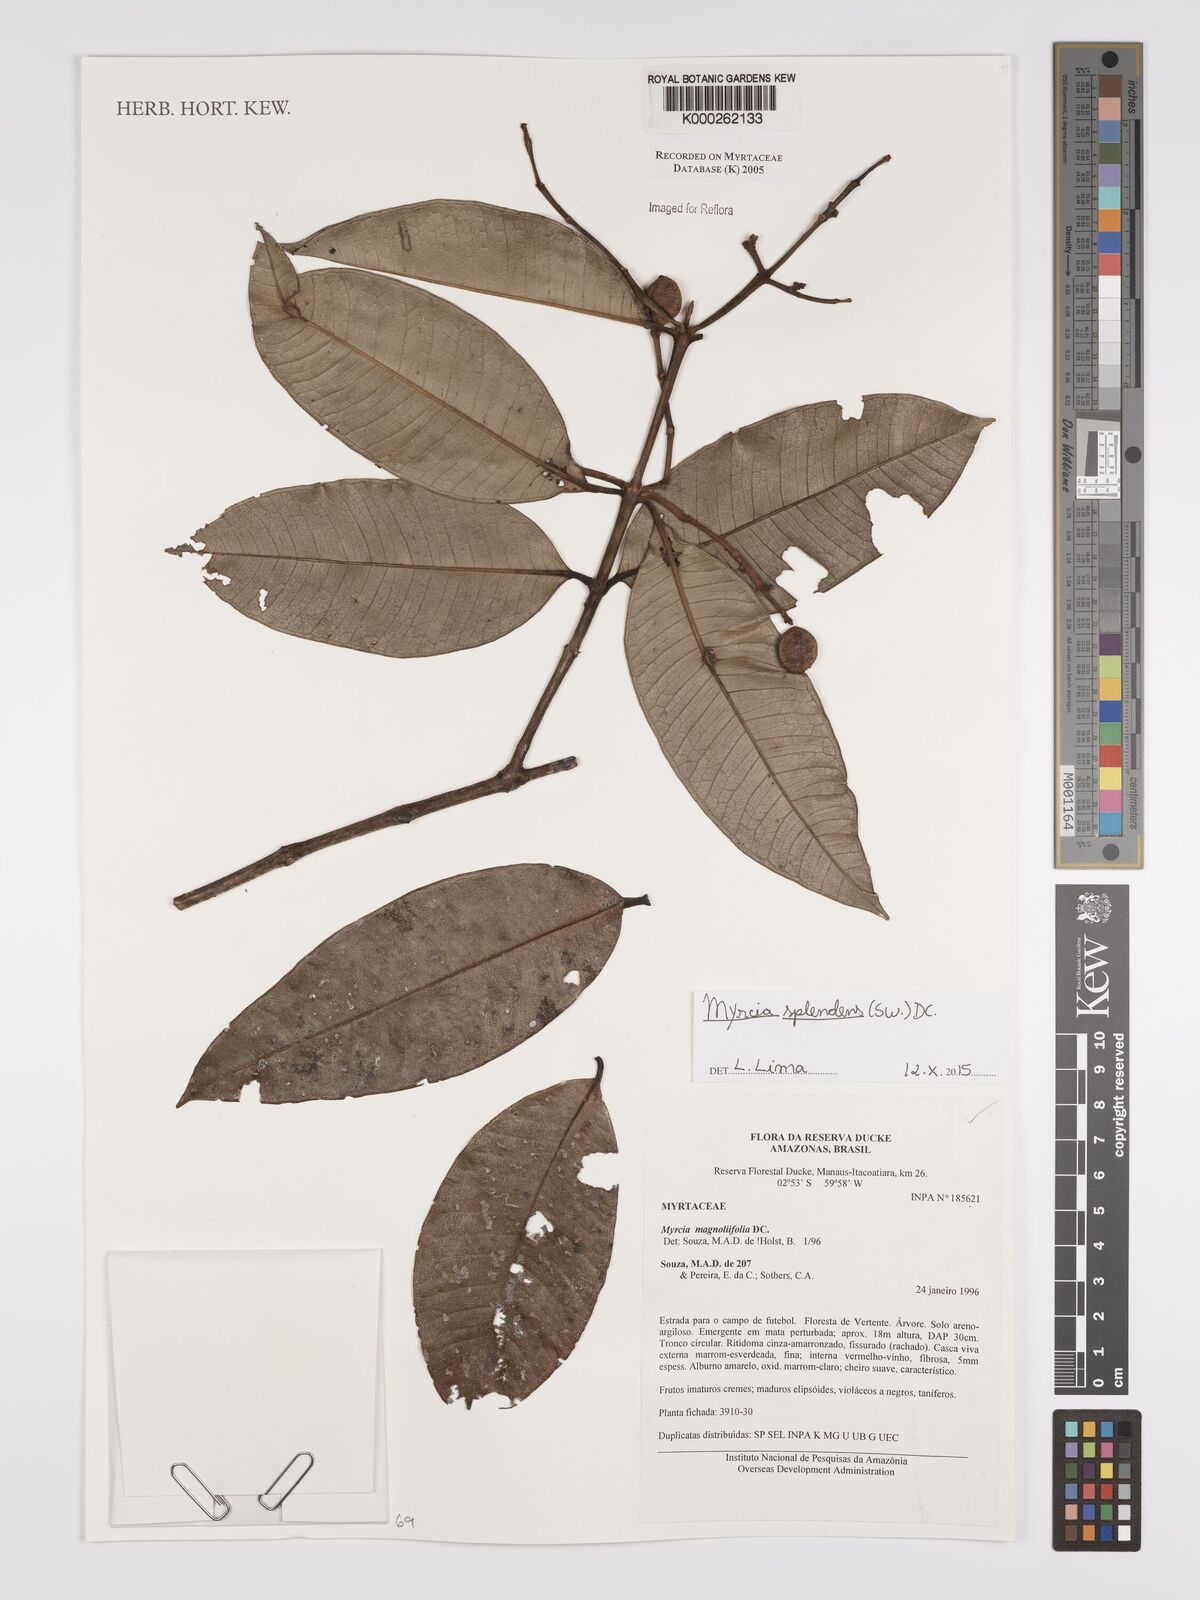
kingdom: Plantae
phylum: Tracheophyta
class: Magnoliopsida
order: Myrtales
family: Myrtaceae
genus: Myrcia
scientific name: Myrcia splendens
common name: Surinam cherry
